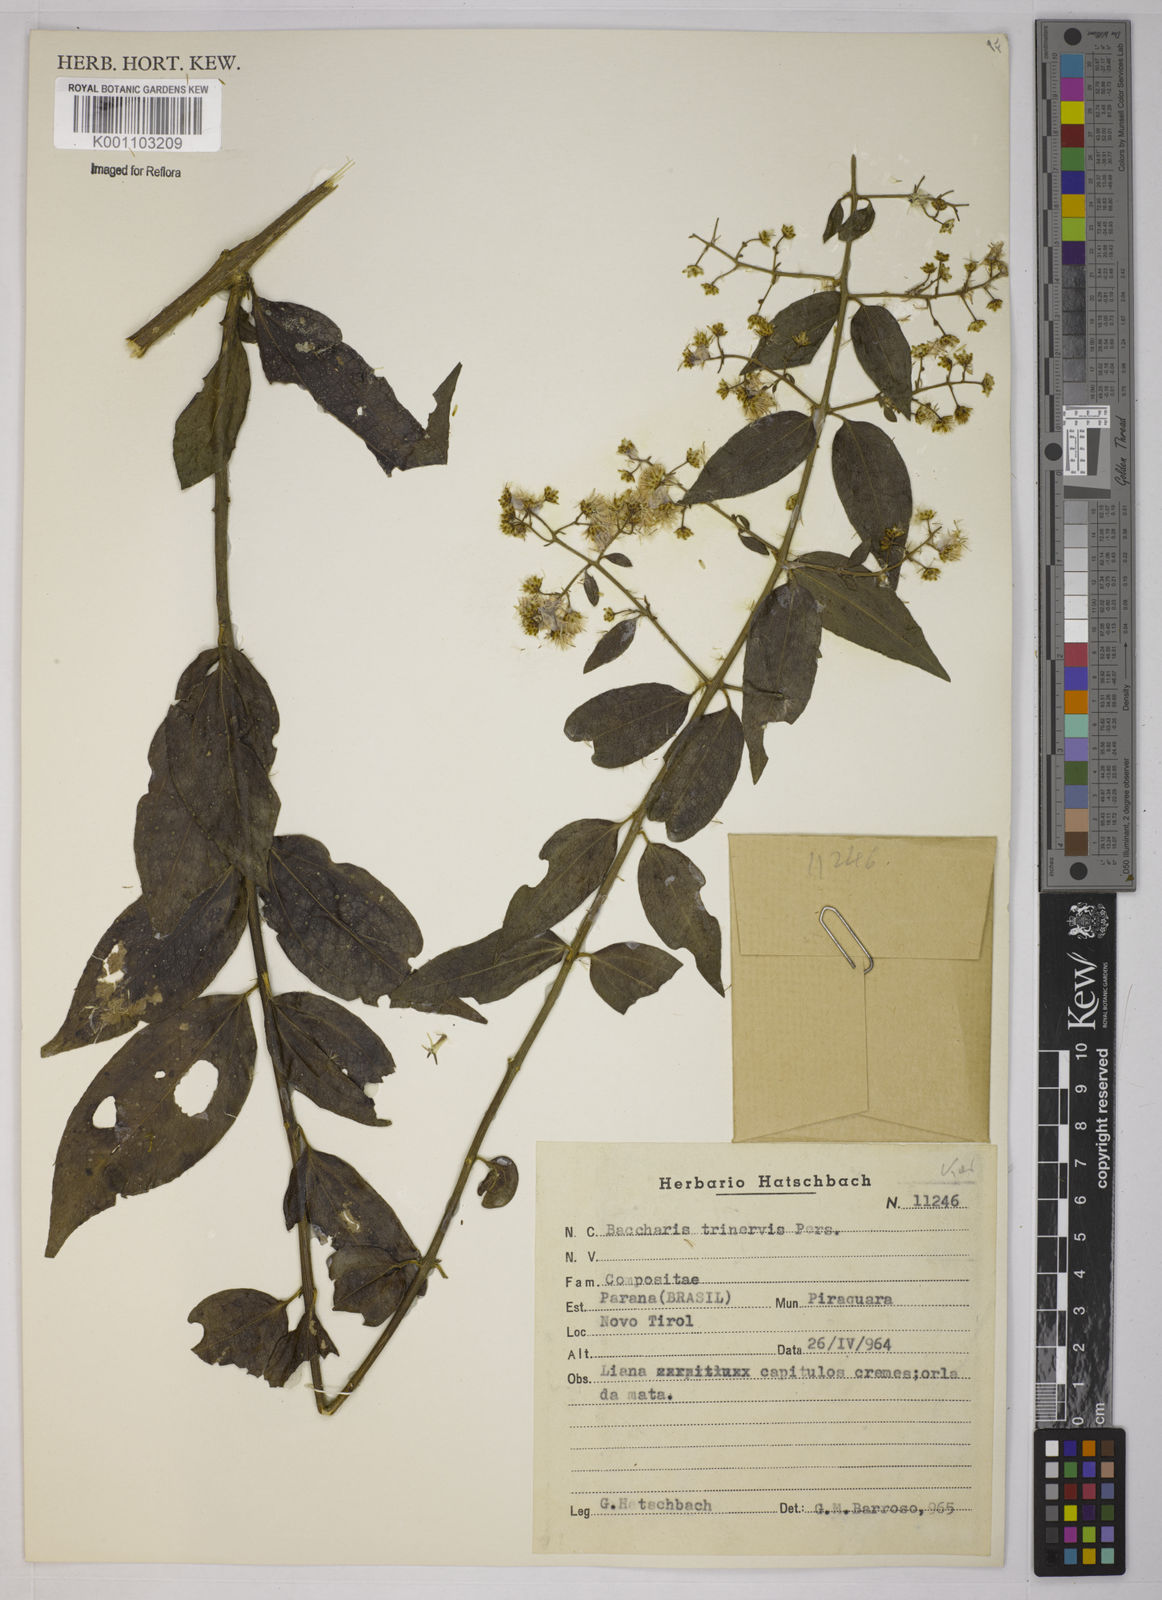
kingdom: Plantae
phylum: Tracheophyta
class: Magnoliopsida
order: Asterales
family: Asteraceae
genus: Baccharis
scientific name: Baccharis trinervis
